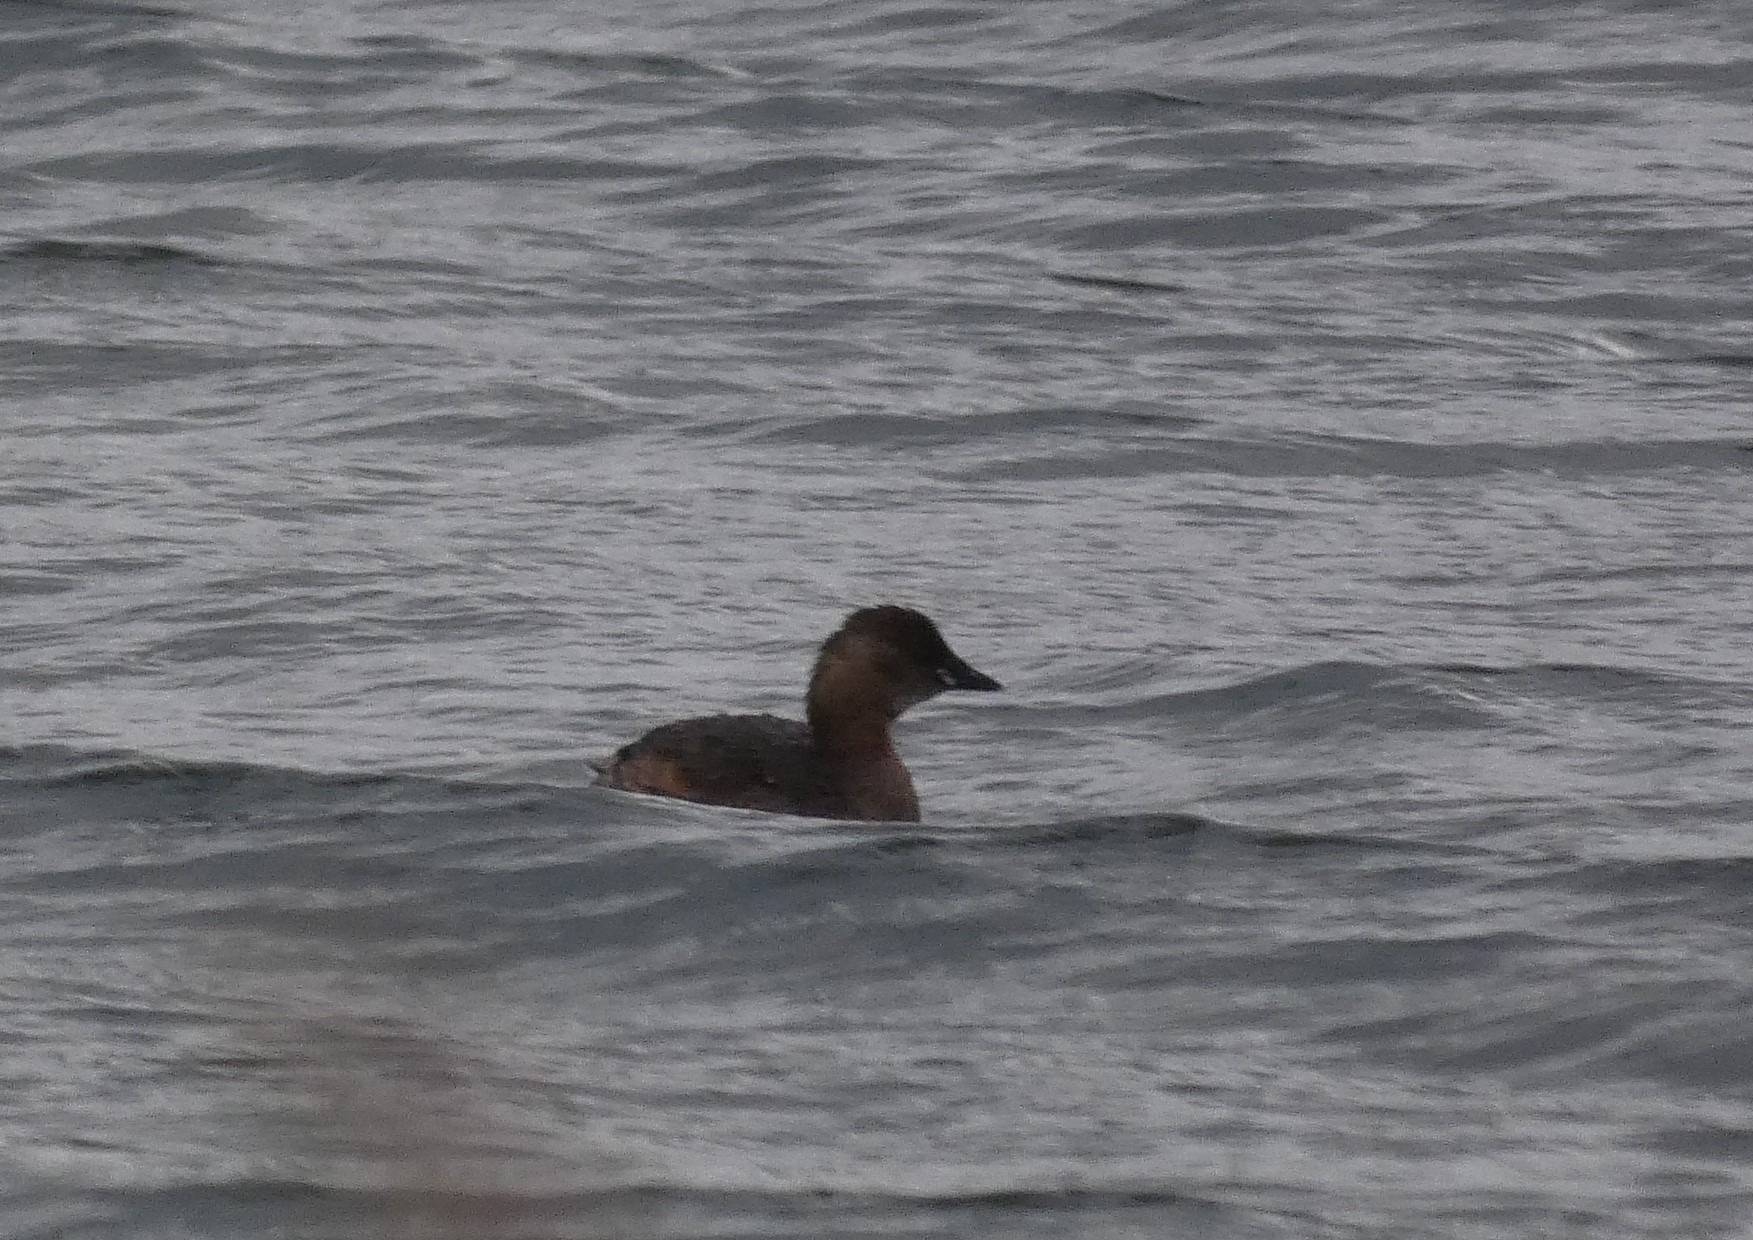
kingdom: Animalia
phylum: Chordata
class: Aves
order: Podicipediformes
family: Podicipedidae
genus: Tachybaptus
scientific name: Tachybaptus ruficollis
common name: Lille lappedykker
